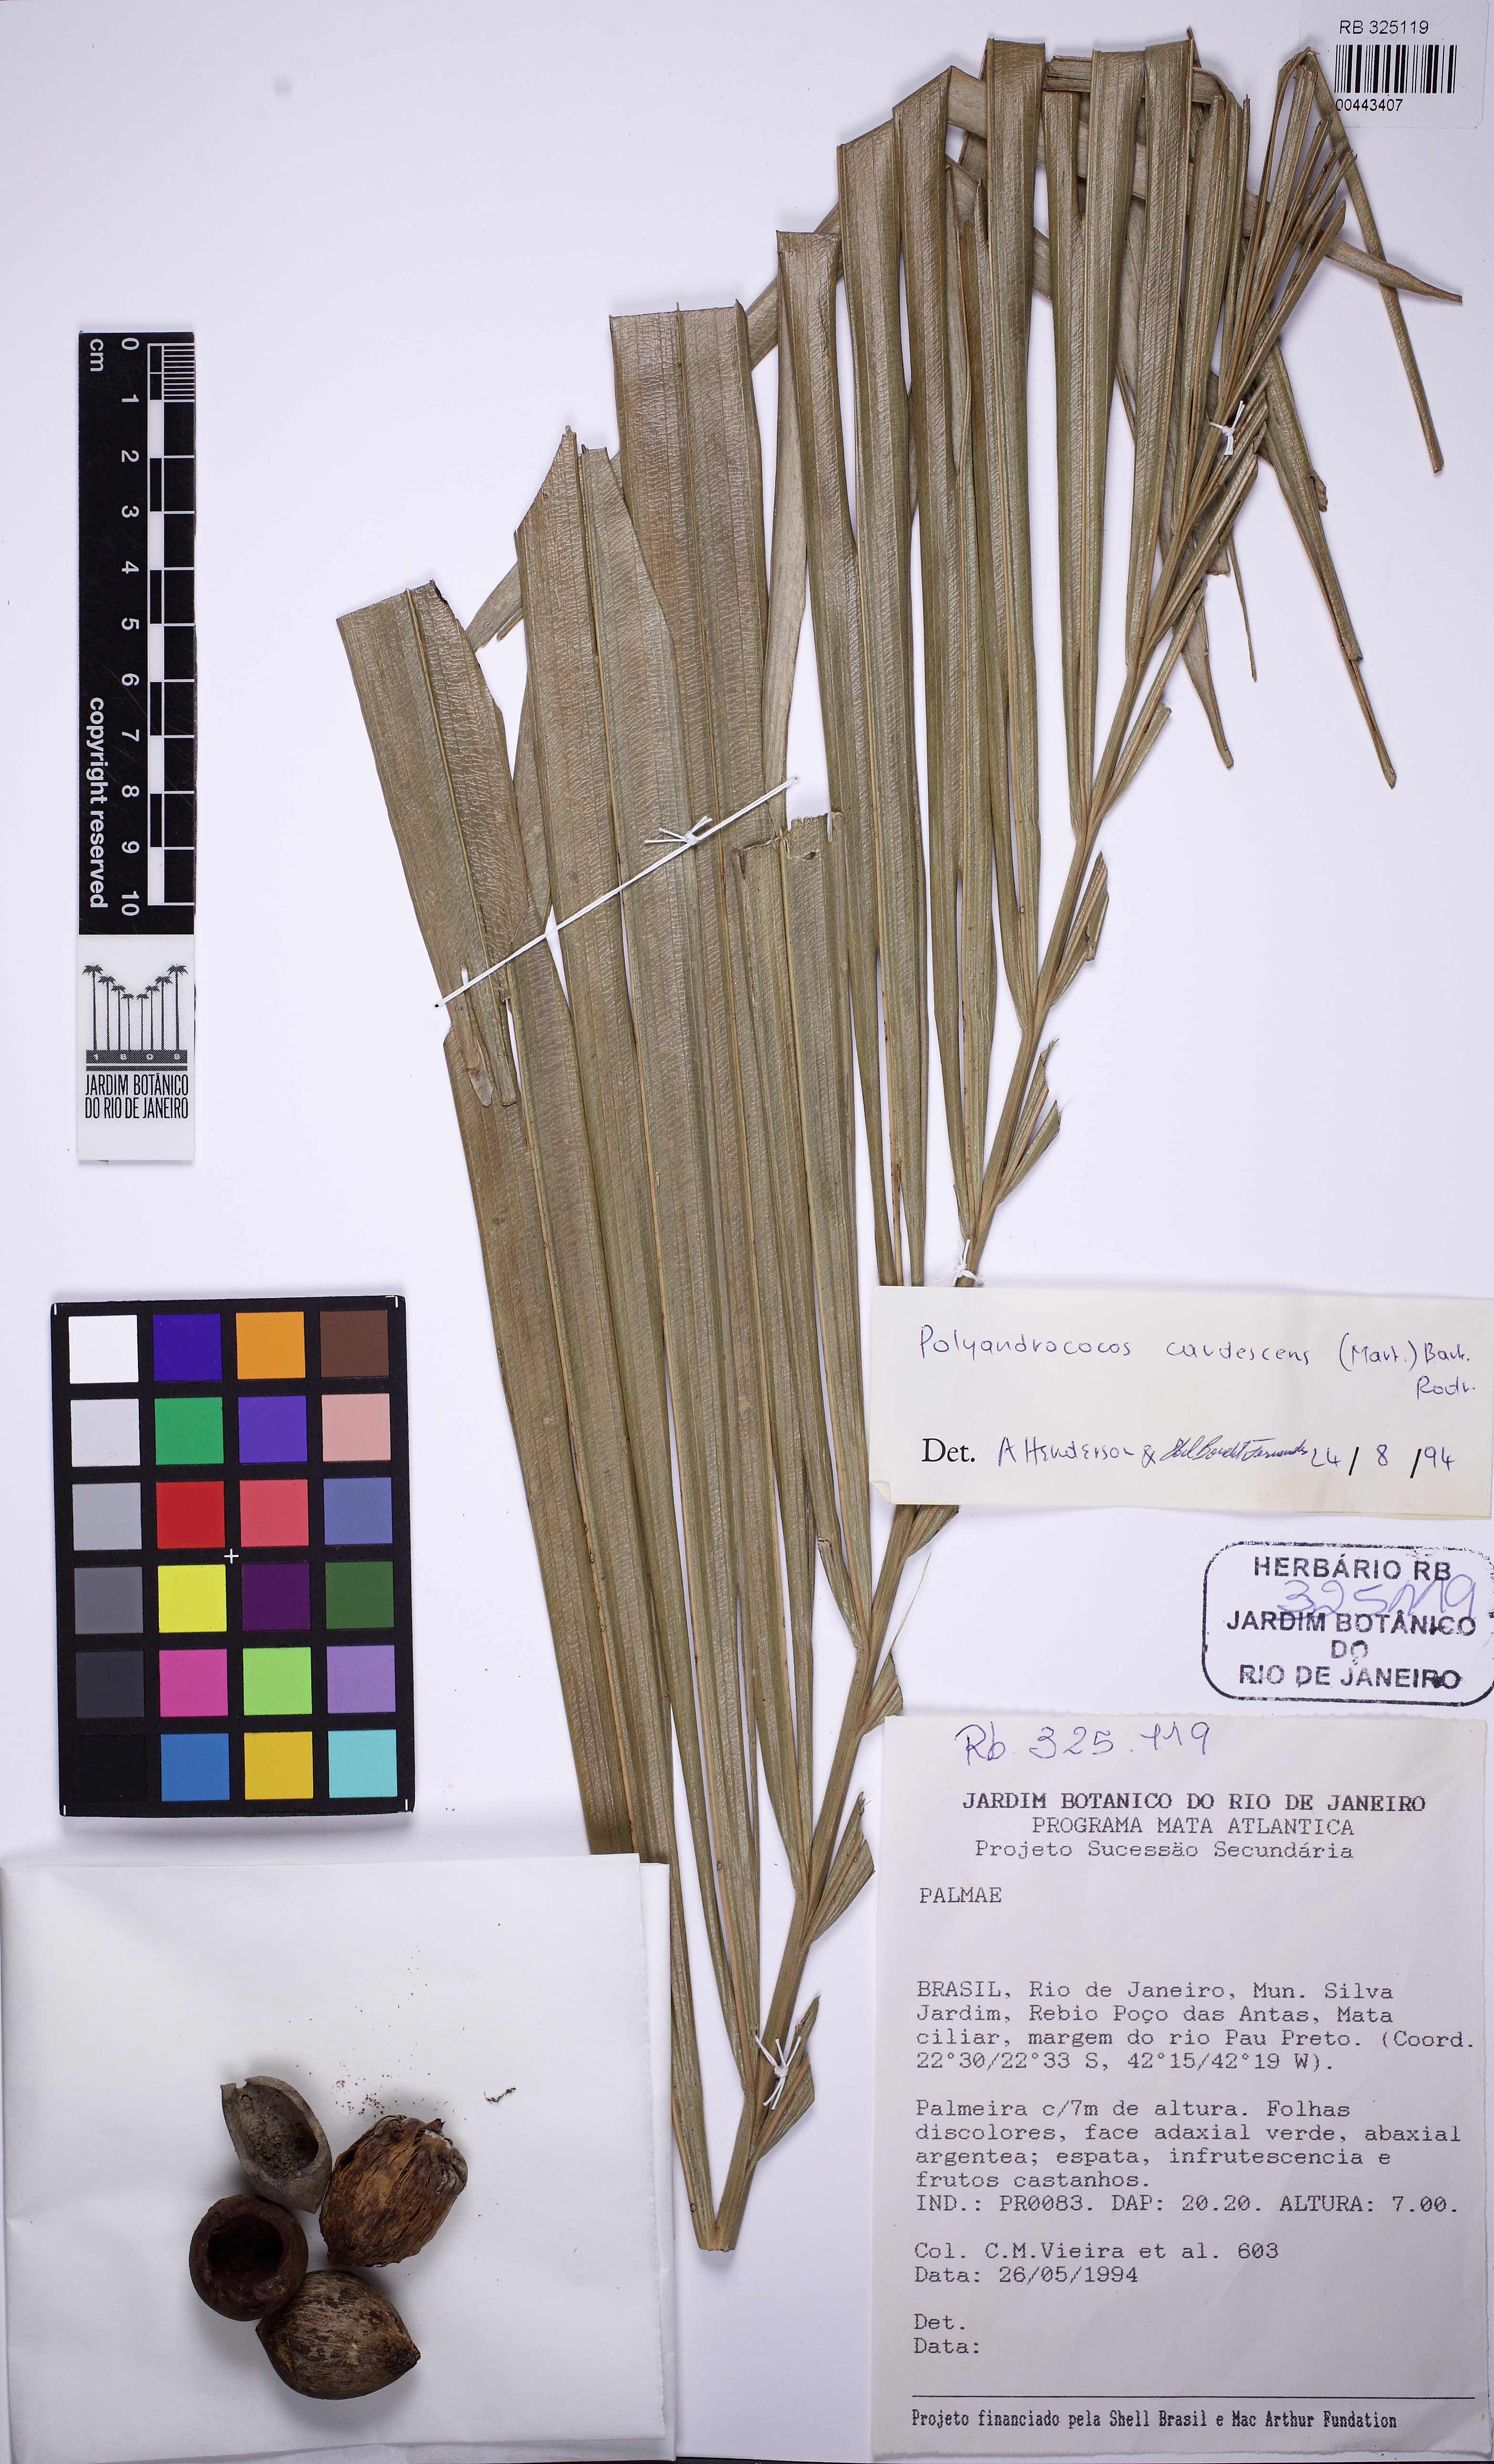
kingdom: Plantae
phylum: Tracheophyta
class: Liliopsida
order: Arecales
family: Arecaceae
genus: Allagoptera
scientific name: Allagoptera caudescens
